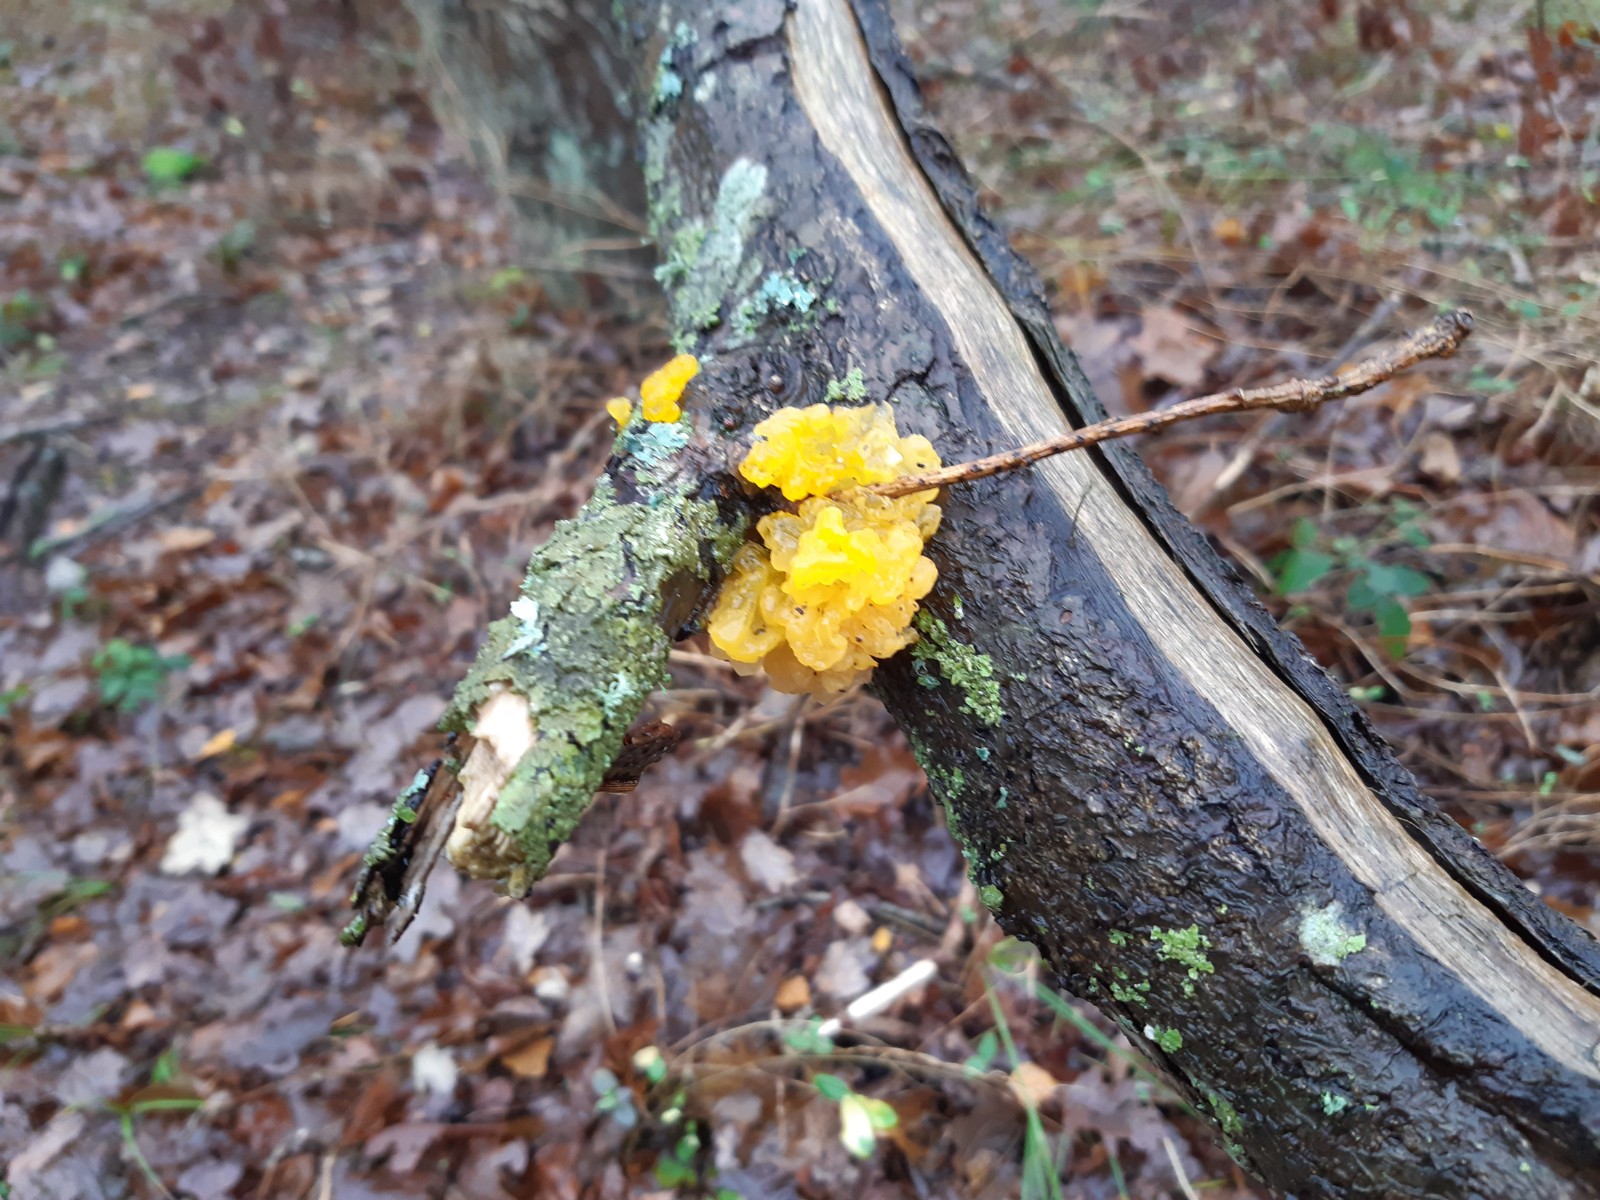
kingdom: Fungi
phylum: Basidiomycota
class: Tremellomycetes
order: Tremellales
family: Tremellaceae
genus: Tremella
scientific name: Tremella mesenterica
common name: gul bævresvamp
